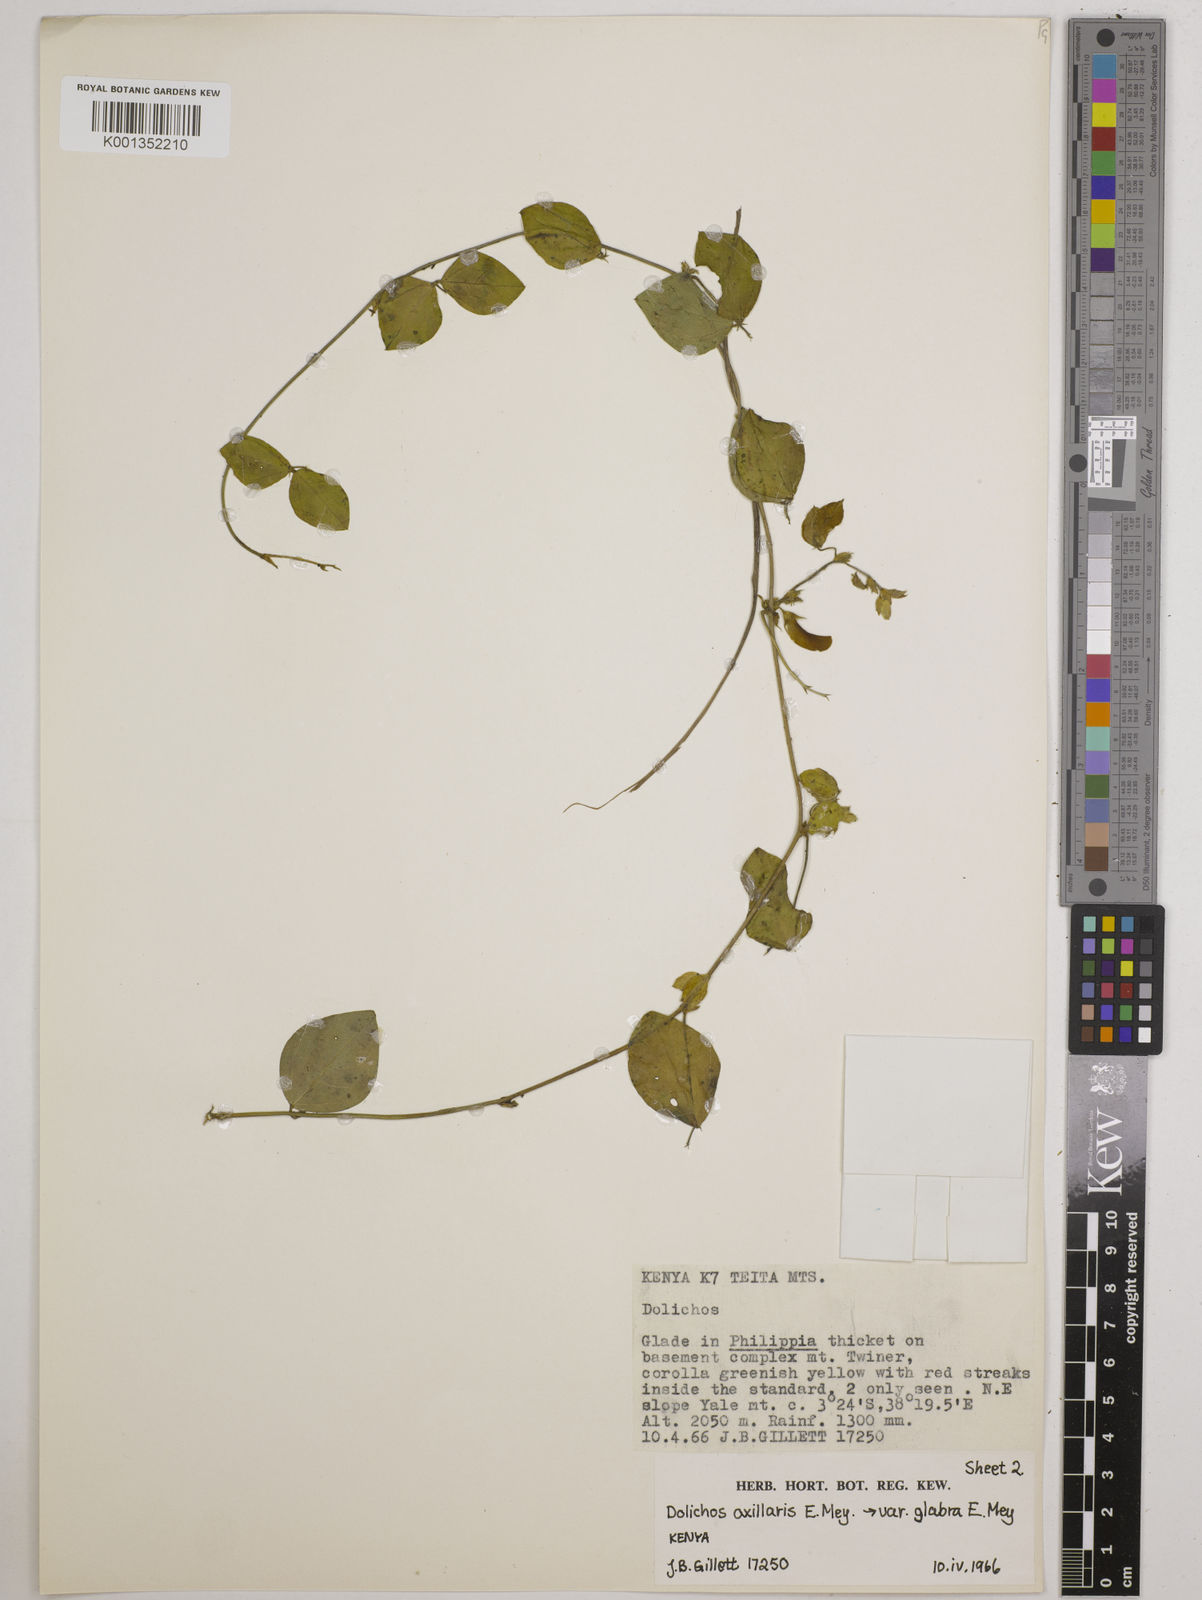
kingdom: Plantae
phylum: Tracheophyta
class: Magnoliopsida
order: Fabales
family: Fabaceae
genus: Macrotyloma
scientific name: Macrotyloma axillare
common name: Perennial horsegram
